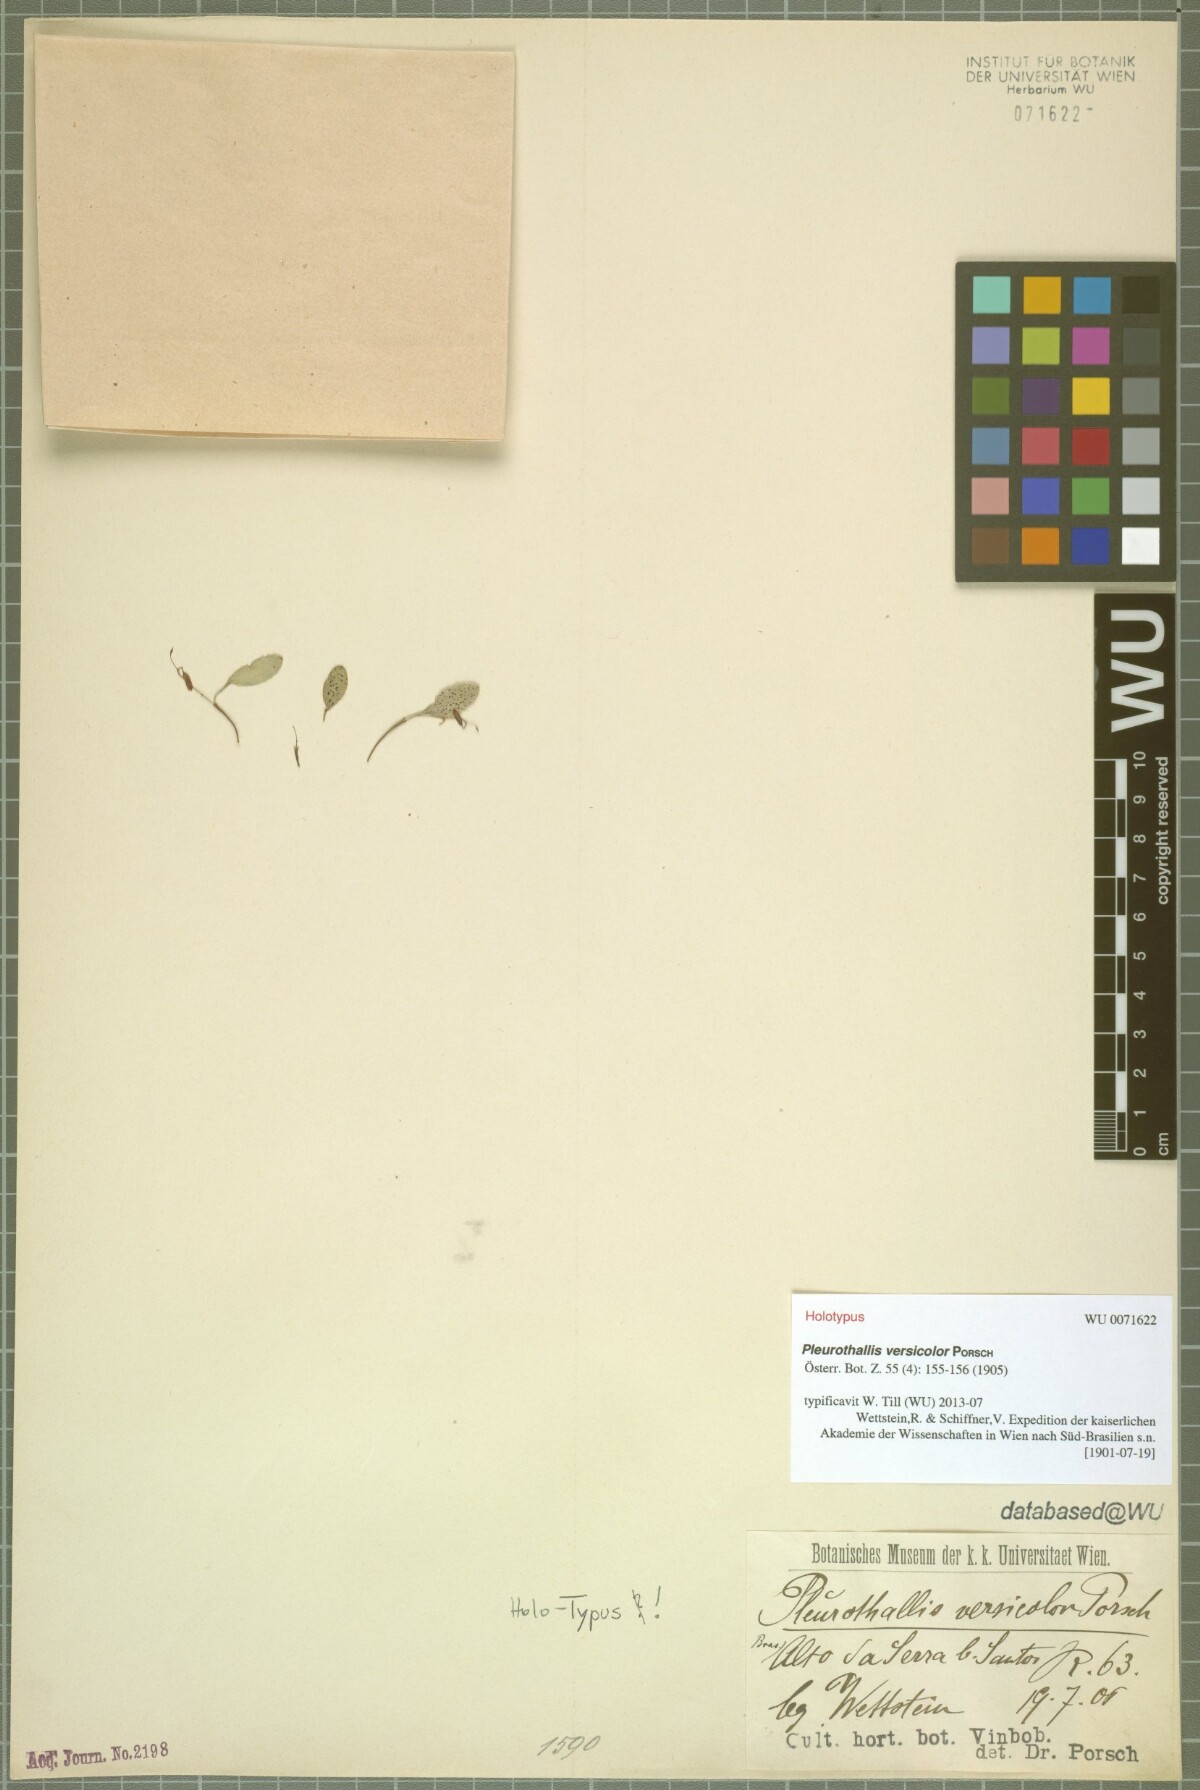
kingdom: Plantae
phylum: Tracheophyta
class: Liliopsida
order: Asparagales
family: Orchidaceae
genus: Pabstiella
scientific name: Pabstiella versicolor
